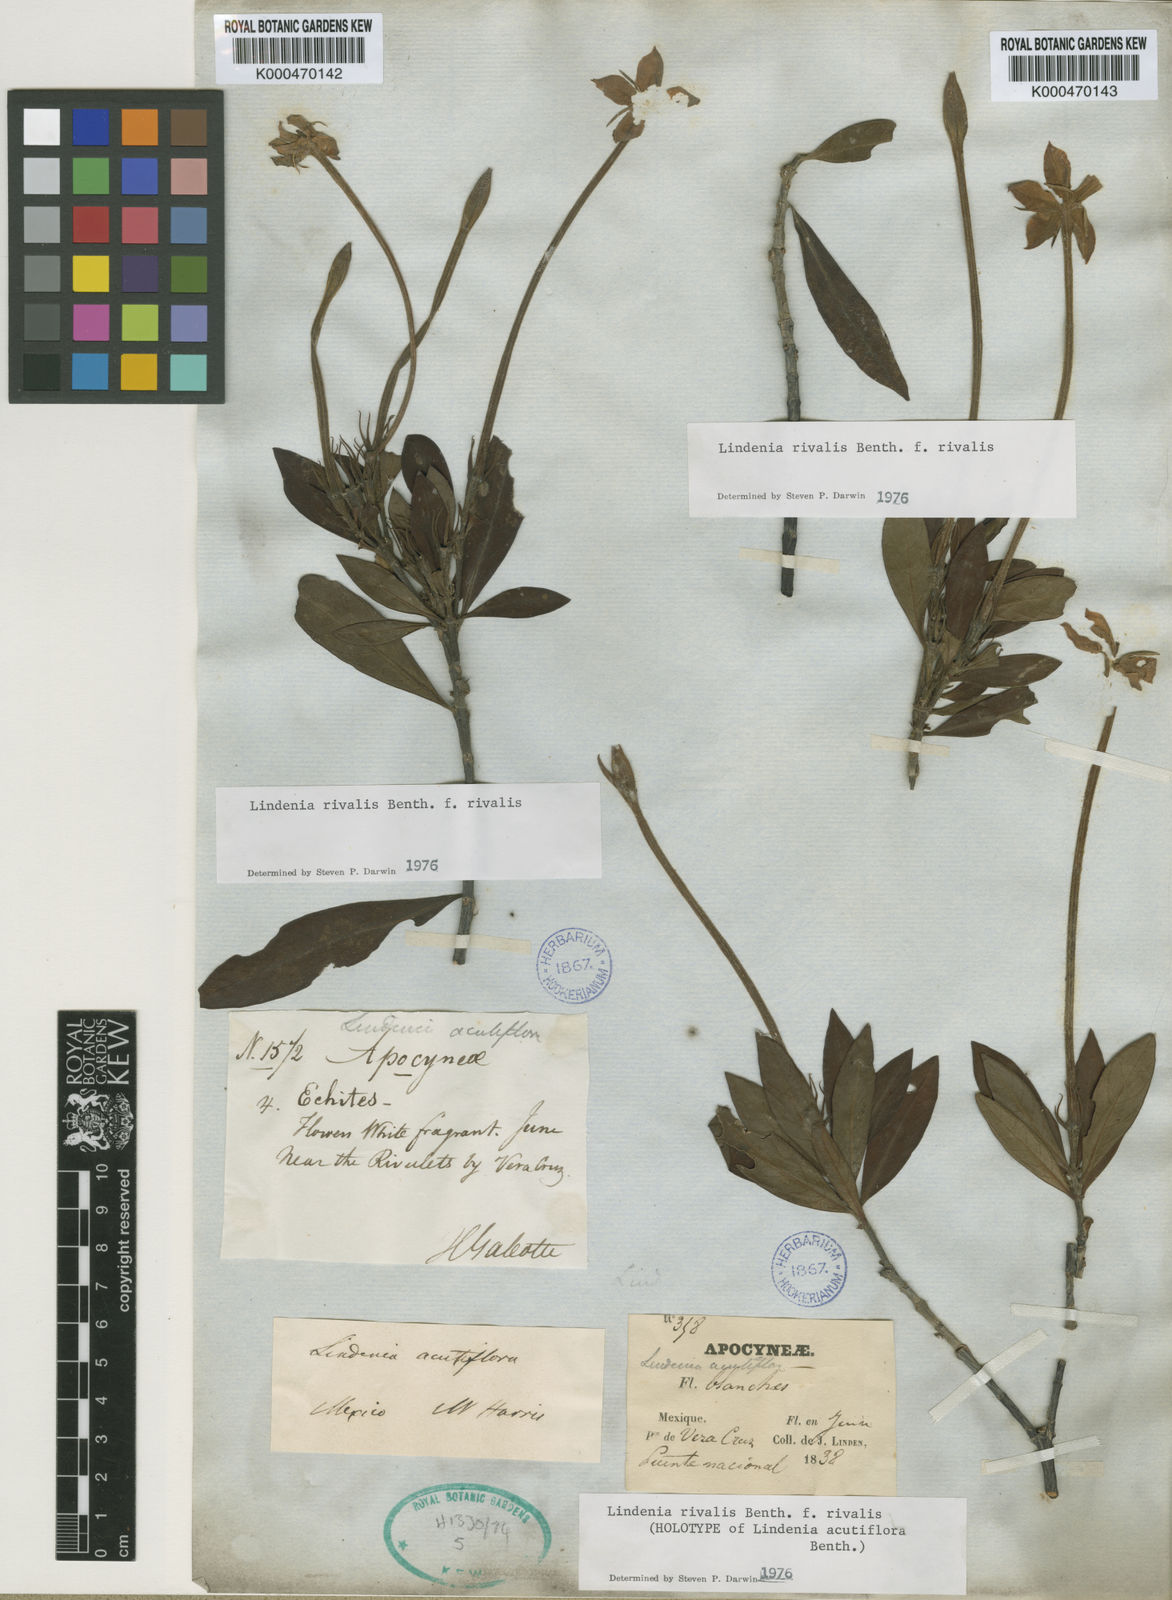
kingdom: Plantae
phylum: Tracheophyta
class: Magnoliopsida
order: Gentianales
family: Rubiaceae
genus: Augusta
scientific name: Augusta rivalis
